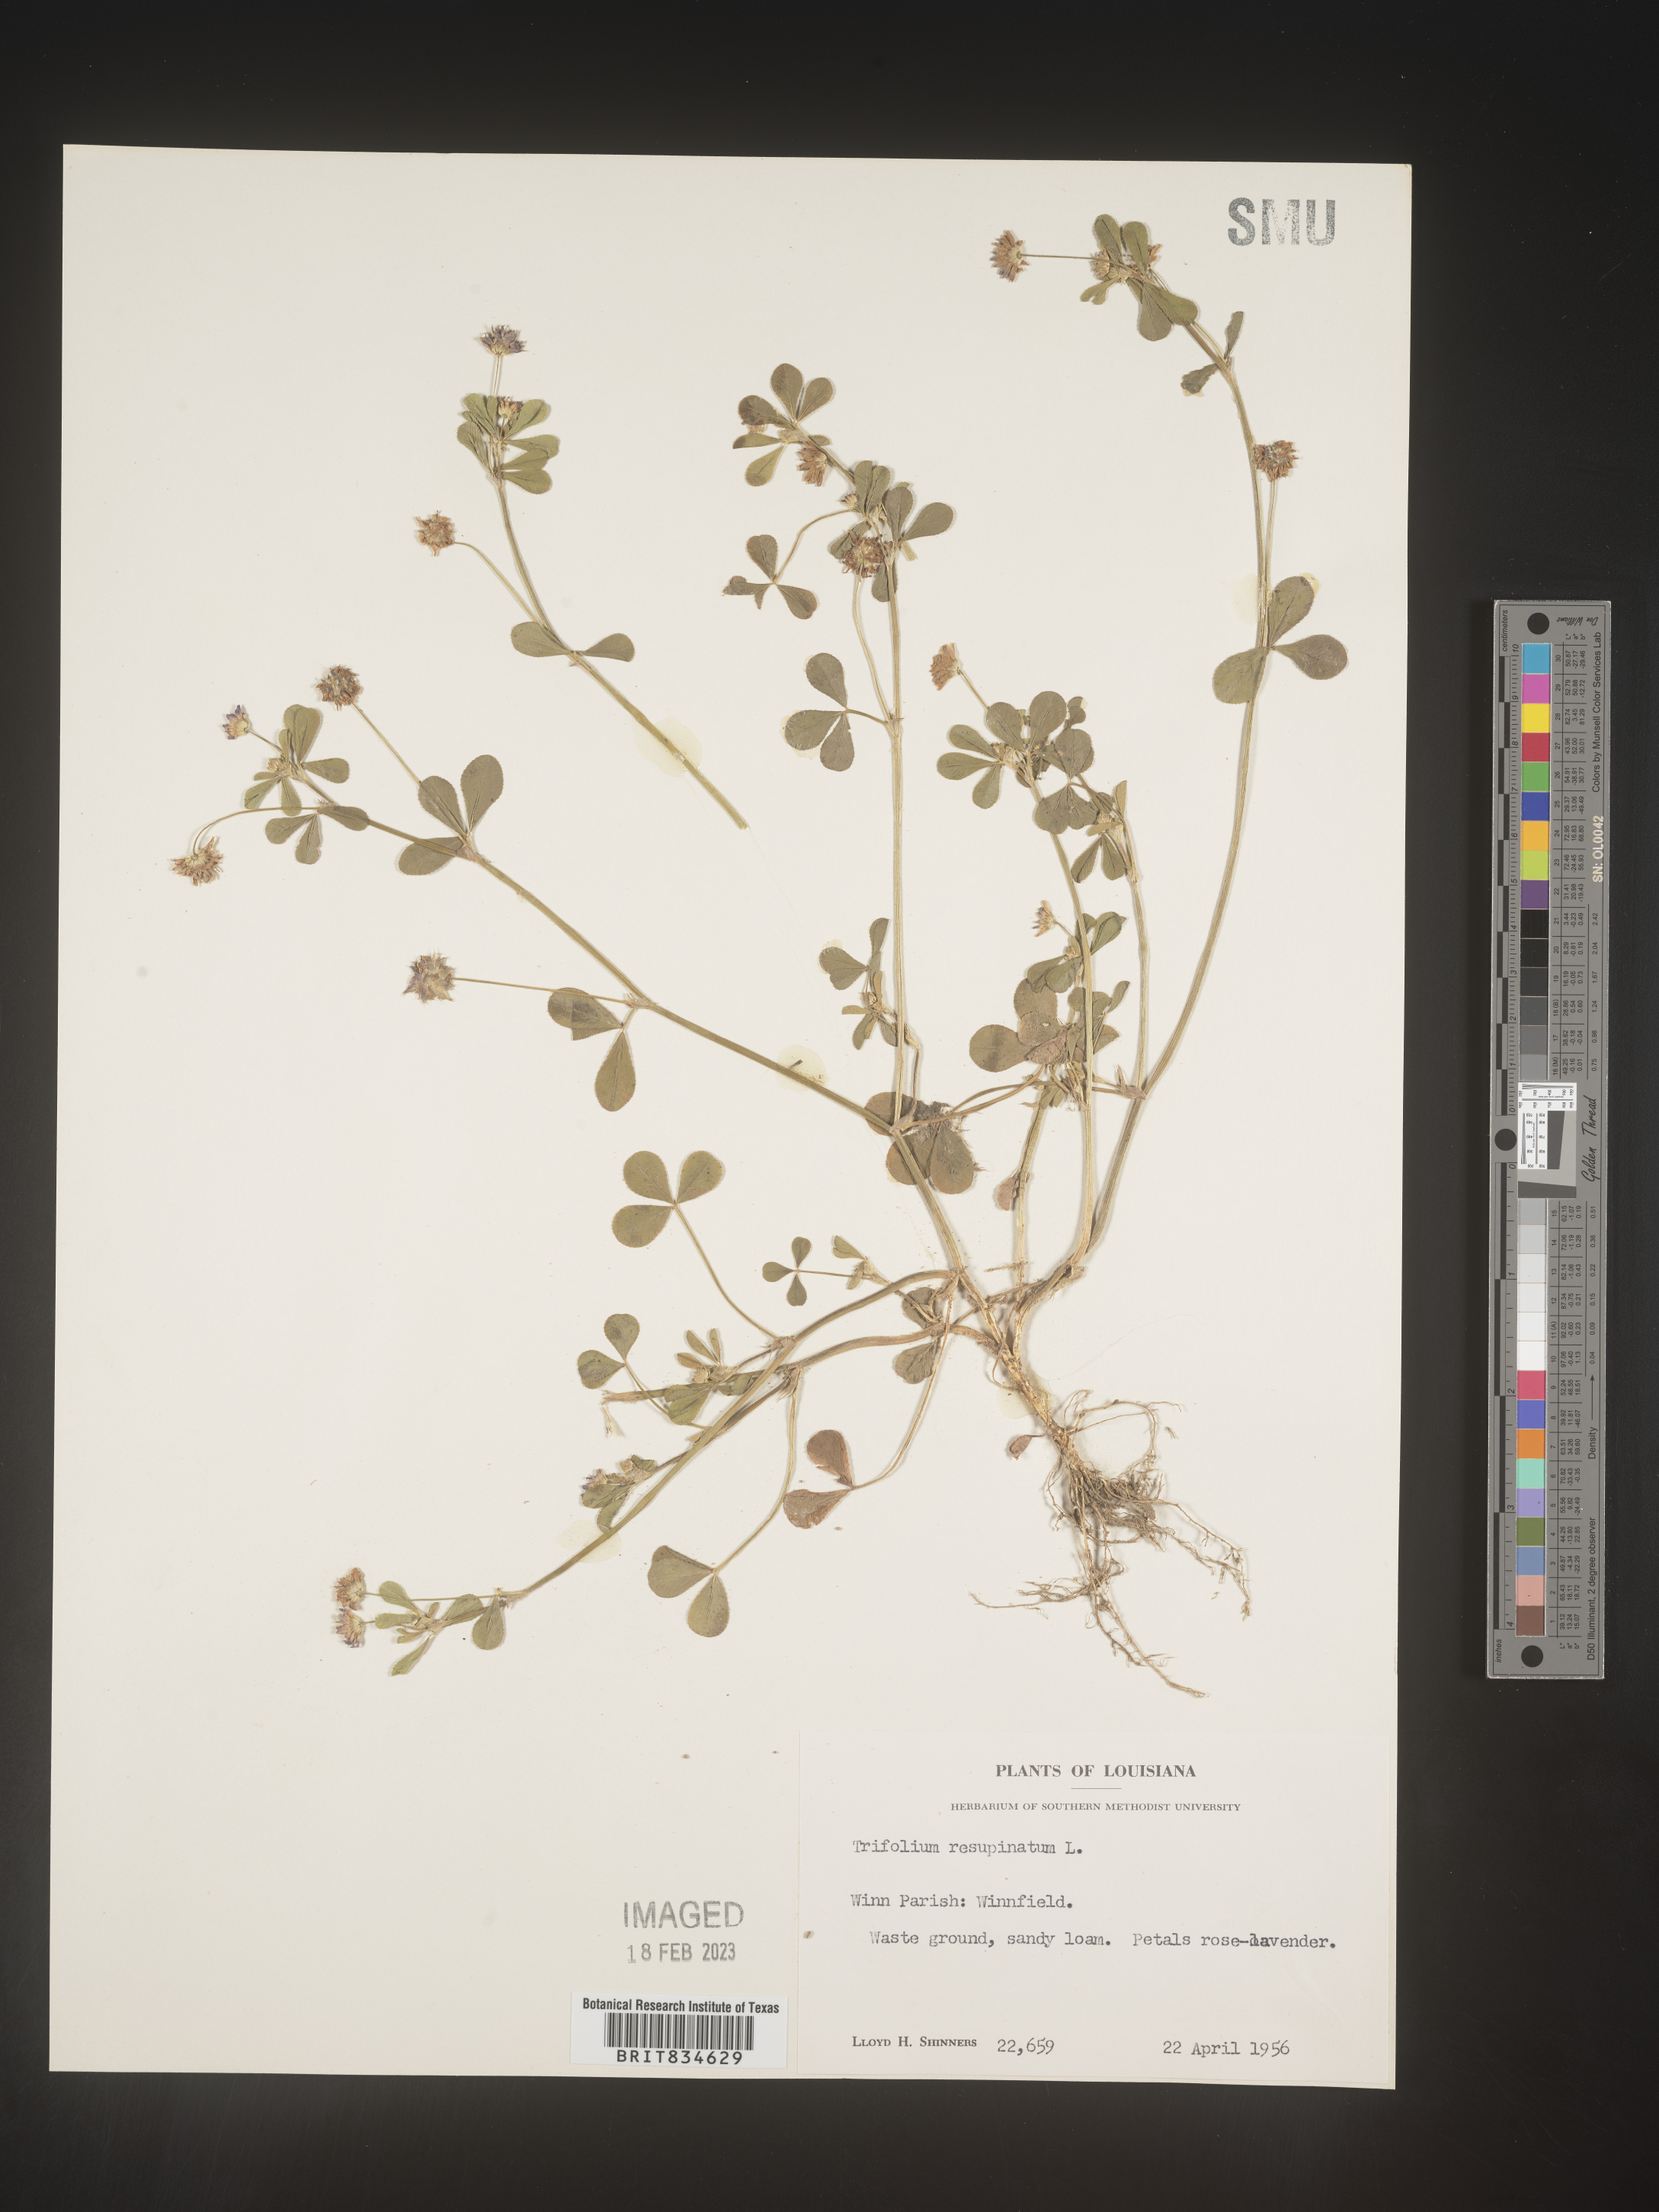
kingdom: Plantae
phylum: Tracheophyta
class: Magnoliopsida
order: Fabales
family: Fabaceae
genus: Trifolium
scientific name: Trifolium resupinatum
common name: Reversed clover
